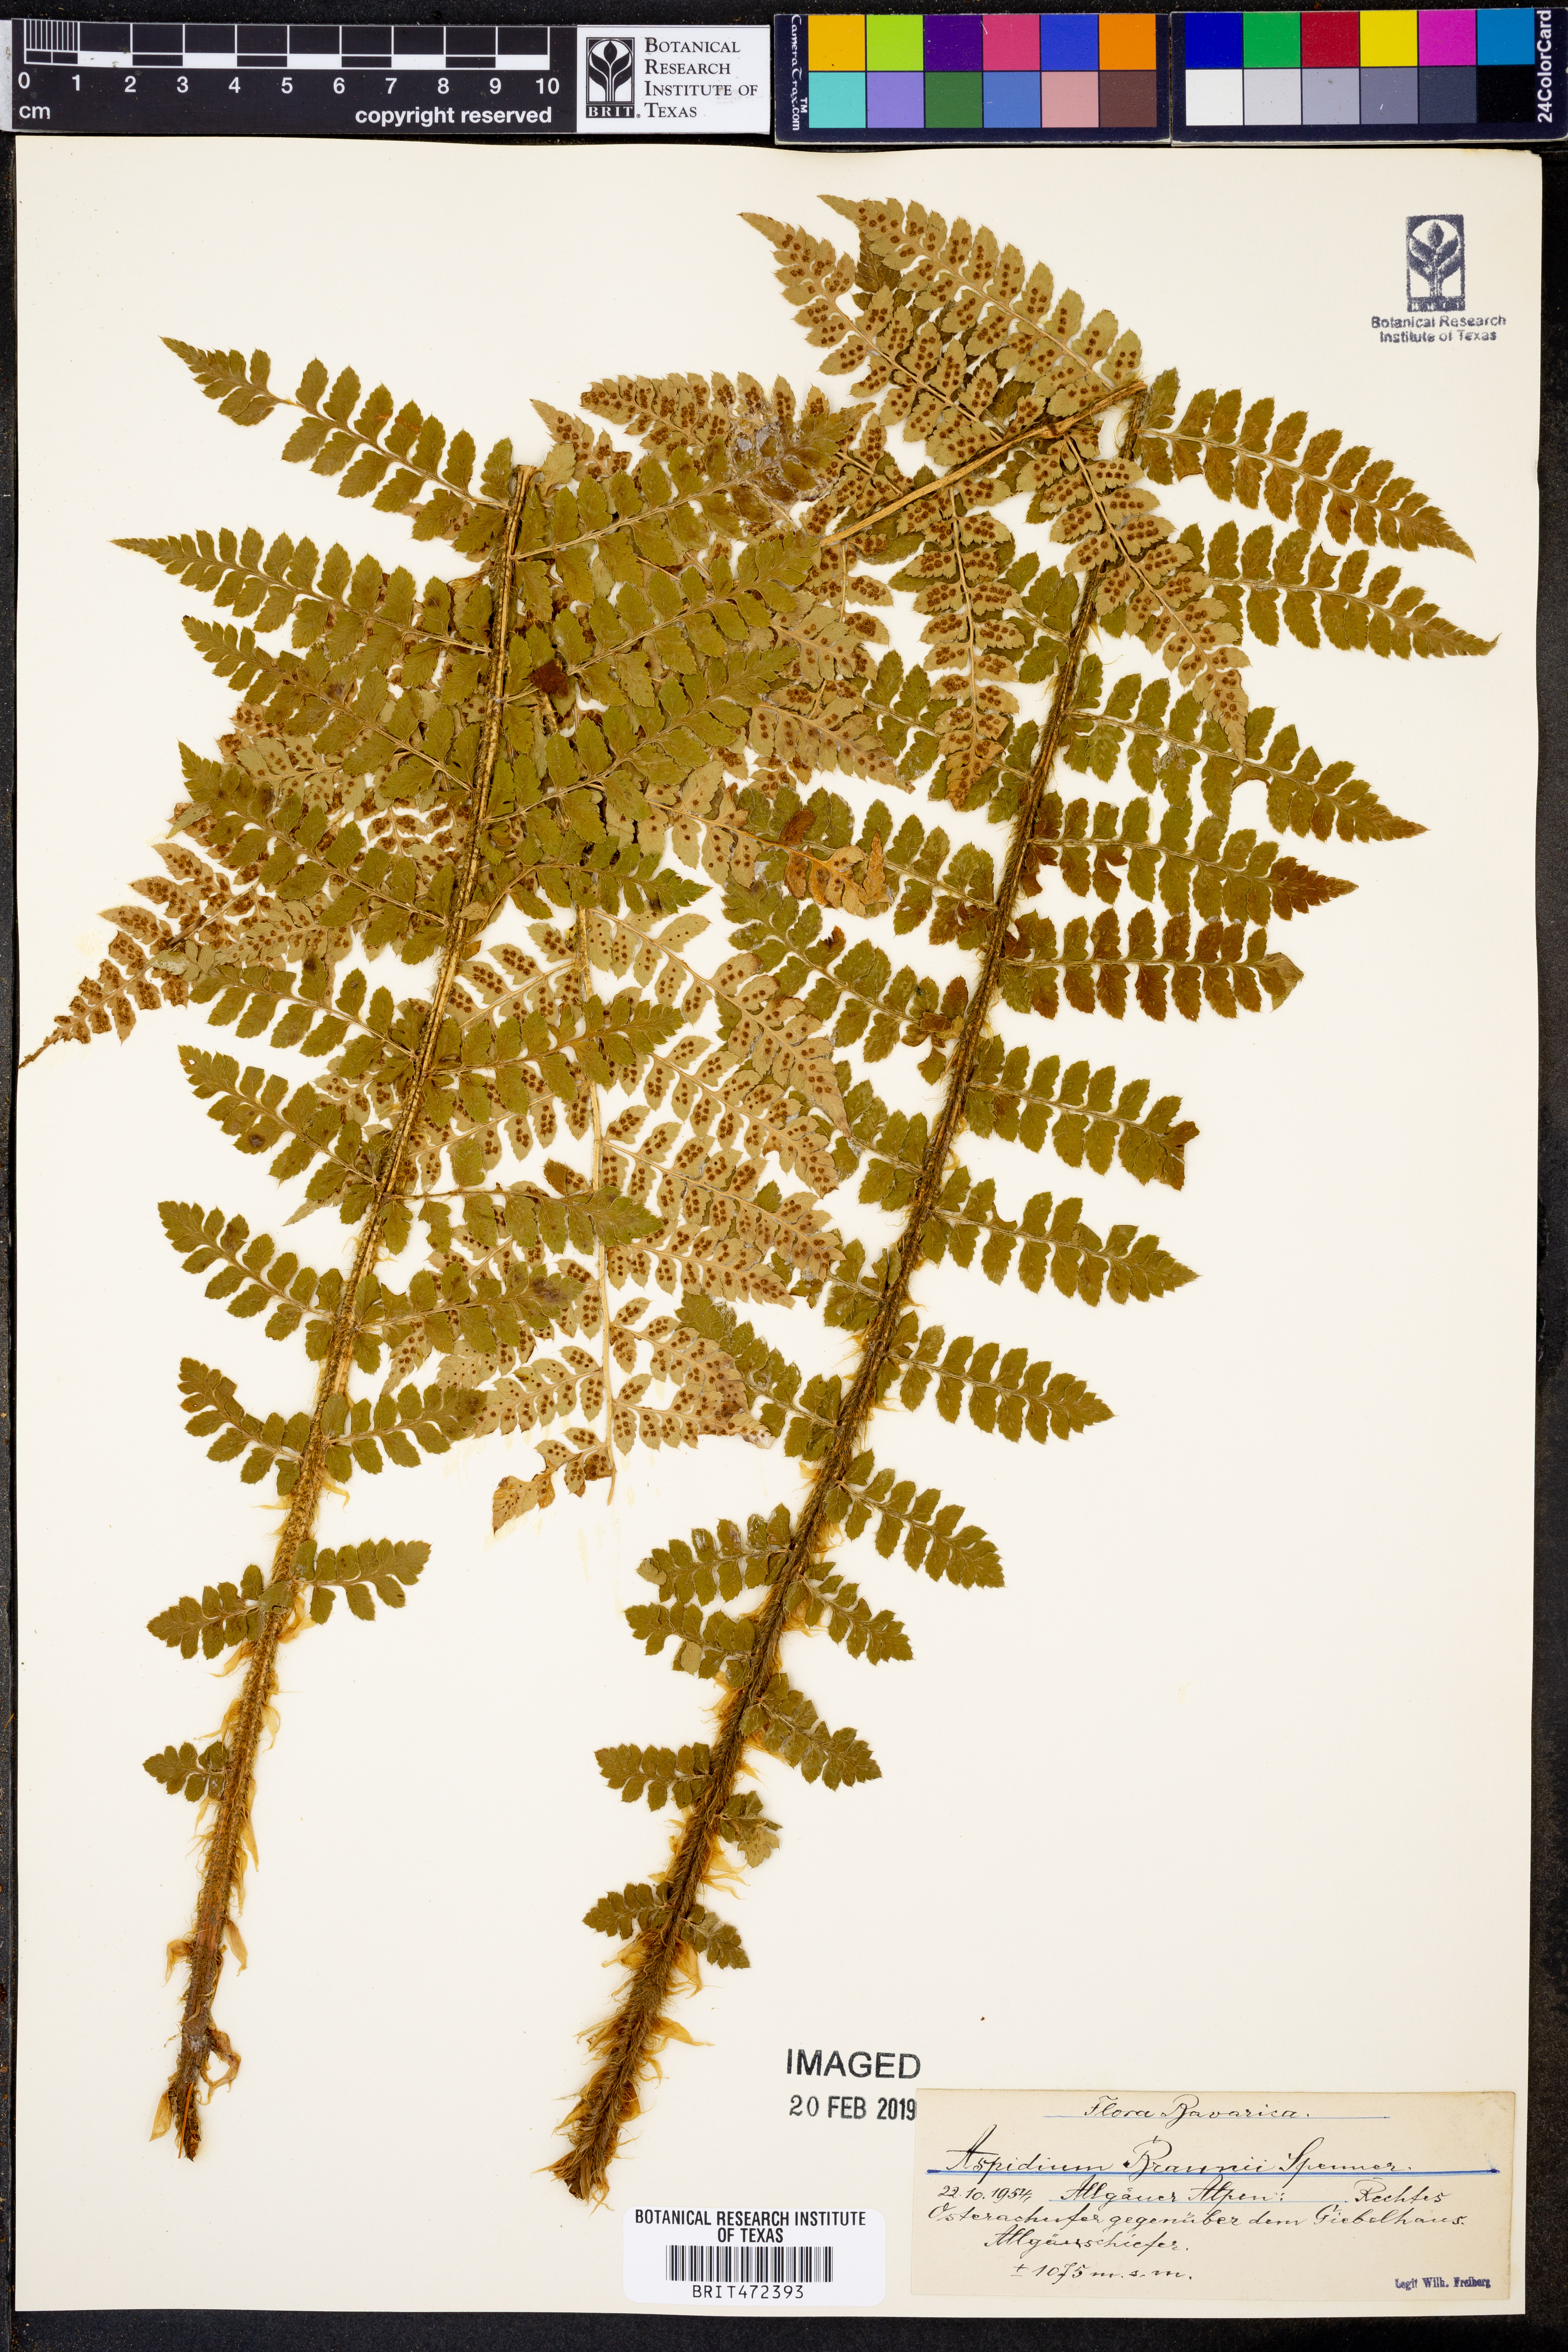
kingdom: Plantae
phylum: Tracheophyta
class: Polypodiopsida
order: Polypodiales
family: Dryopteridaceae
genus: Polystichum
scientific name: Polystichum braunii
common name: Braun's holly fern
